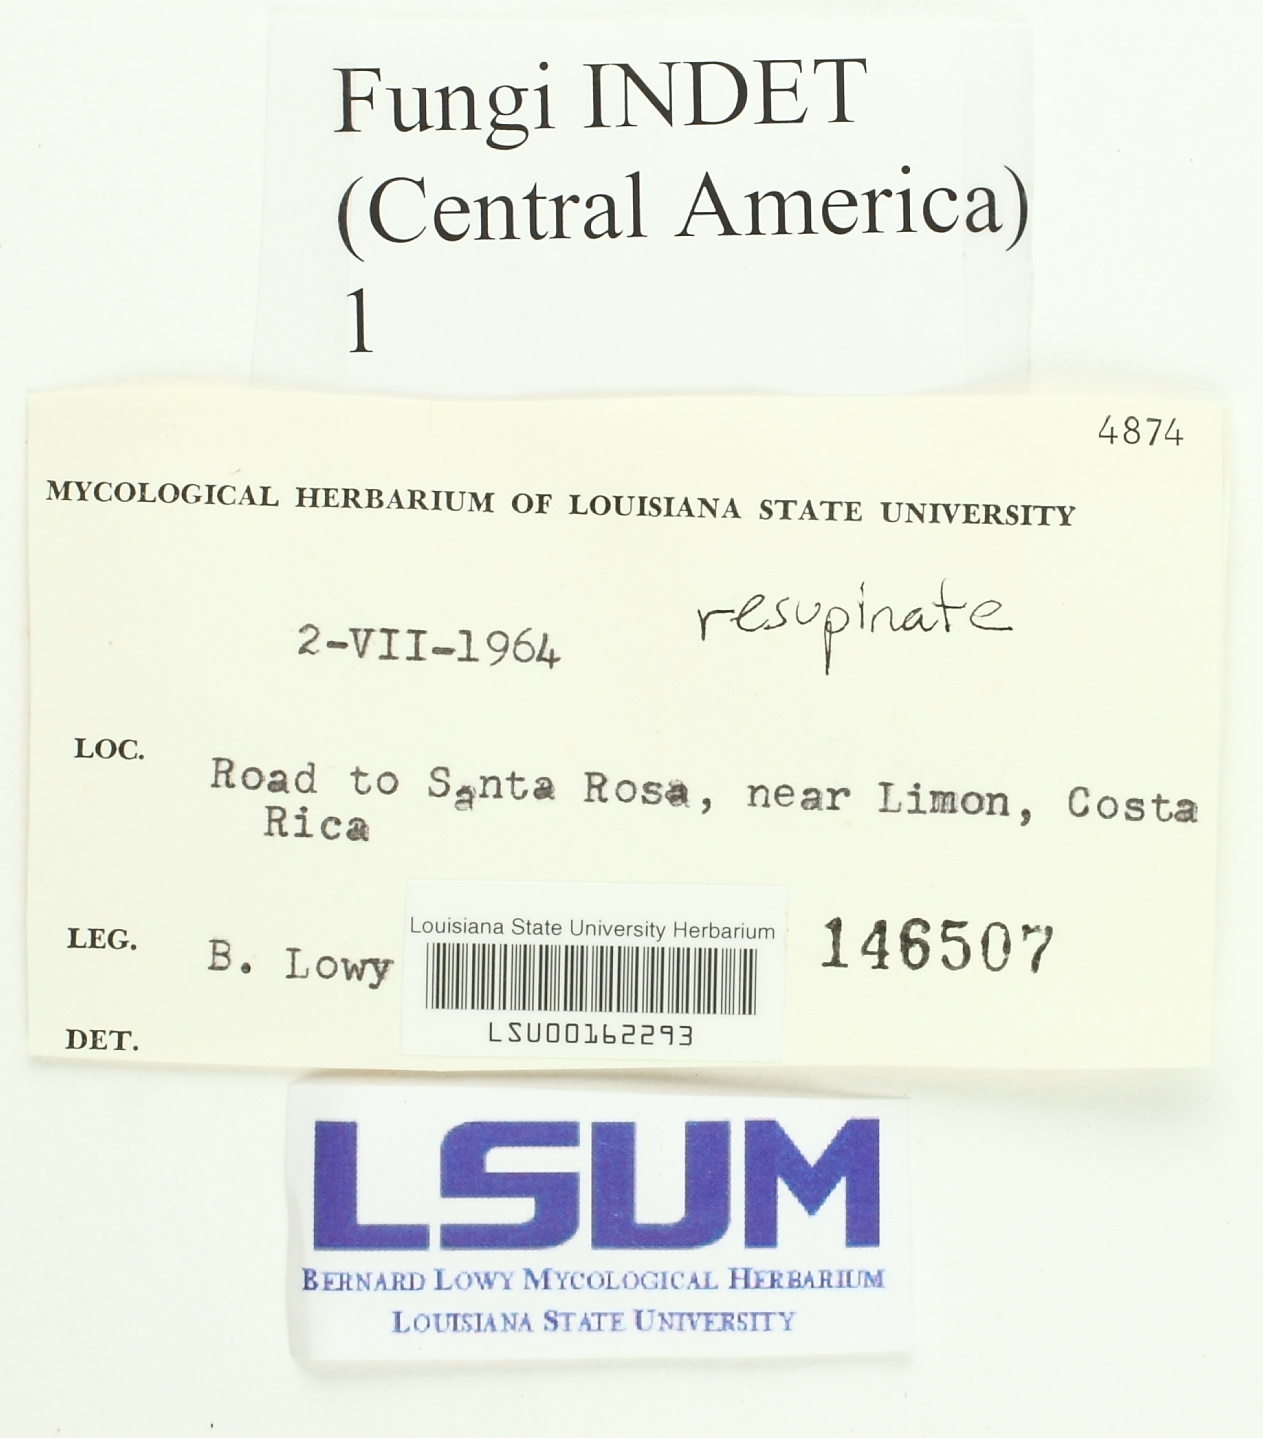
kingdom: Fungi
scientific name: Fungi
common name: Fungi
